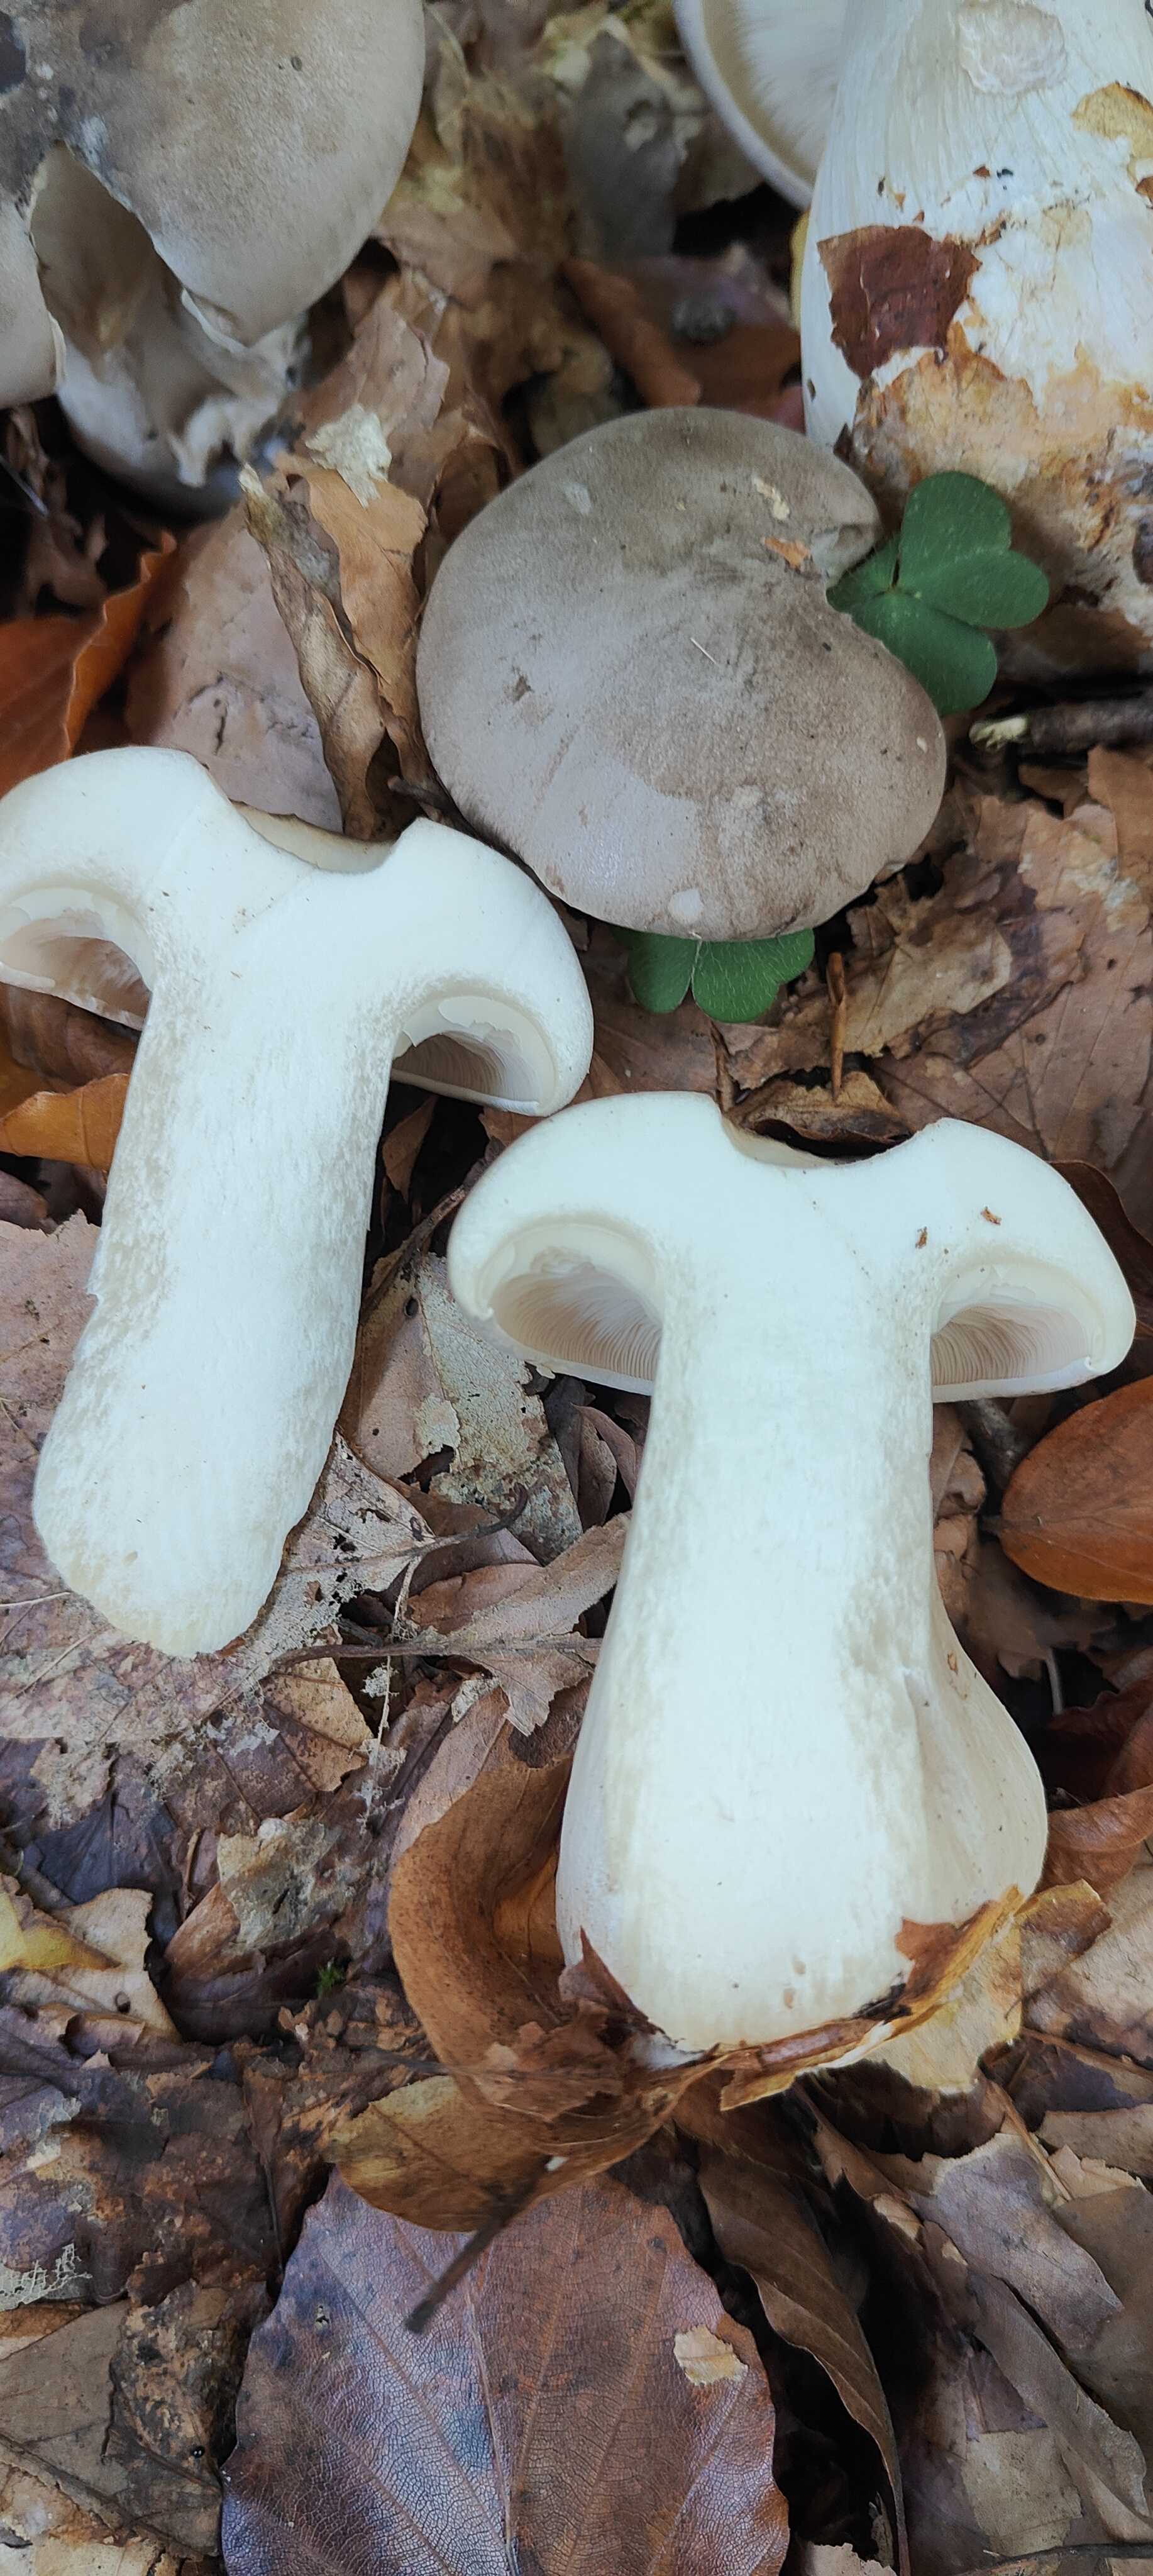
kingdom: Fungi
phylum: Basidiomycota
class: Agaricomycetes
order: Agaricales
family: Tricholomataceae
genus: Clitocybe
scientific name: Clitocybe nebularis
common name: tåge-tragthat
